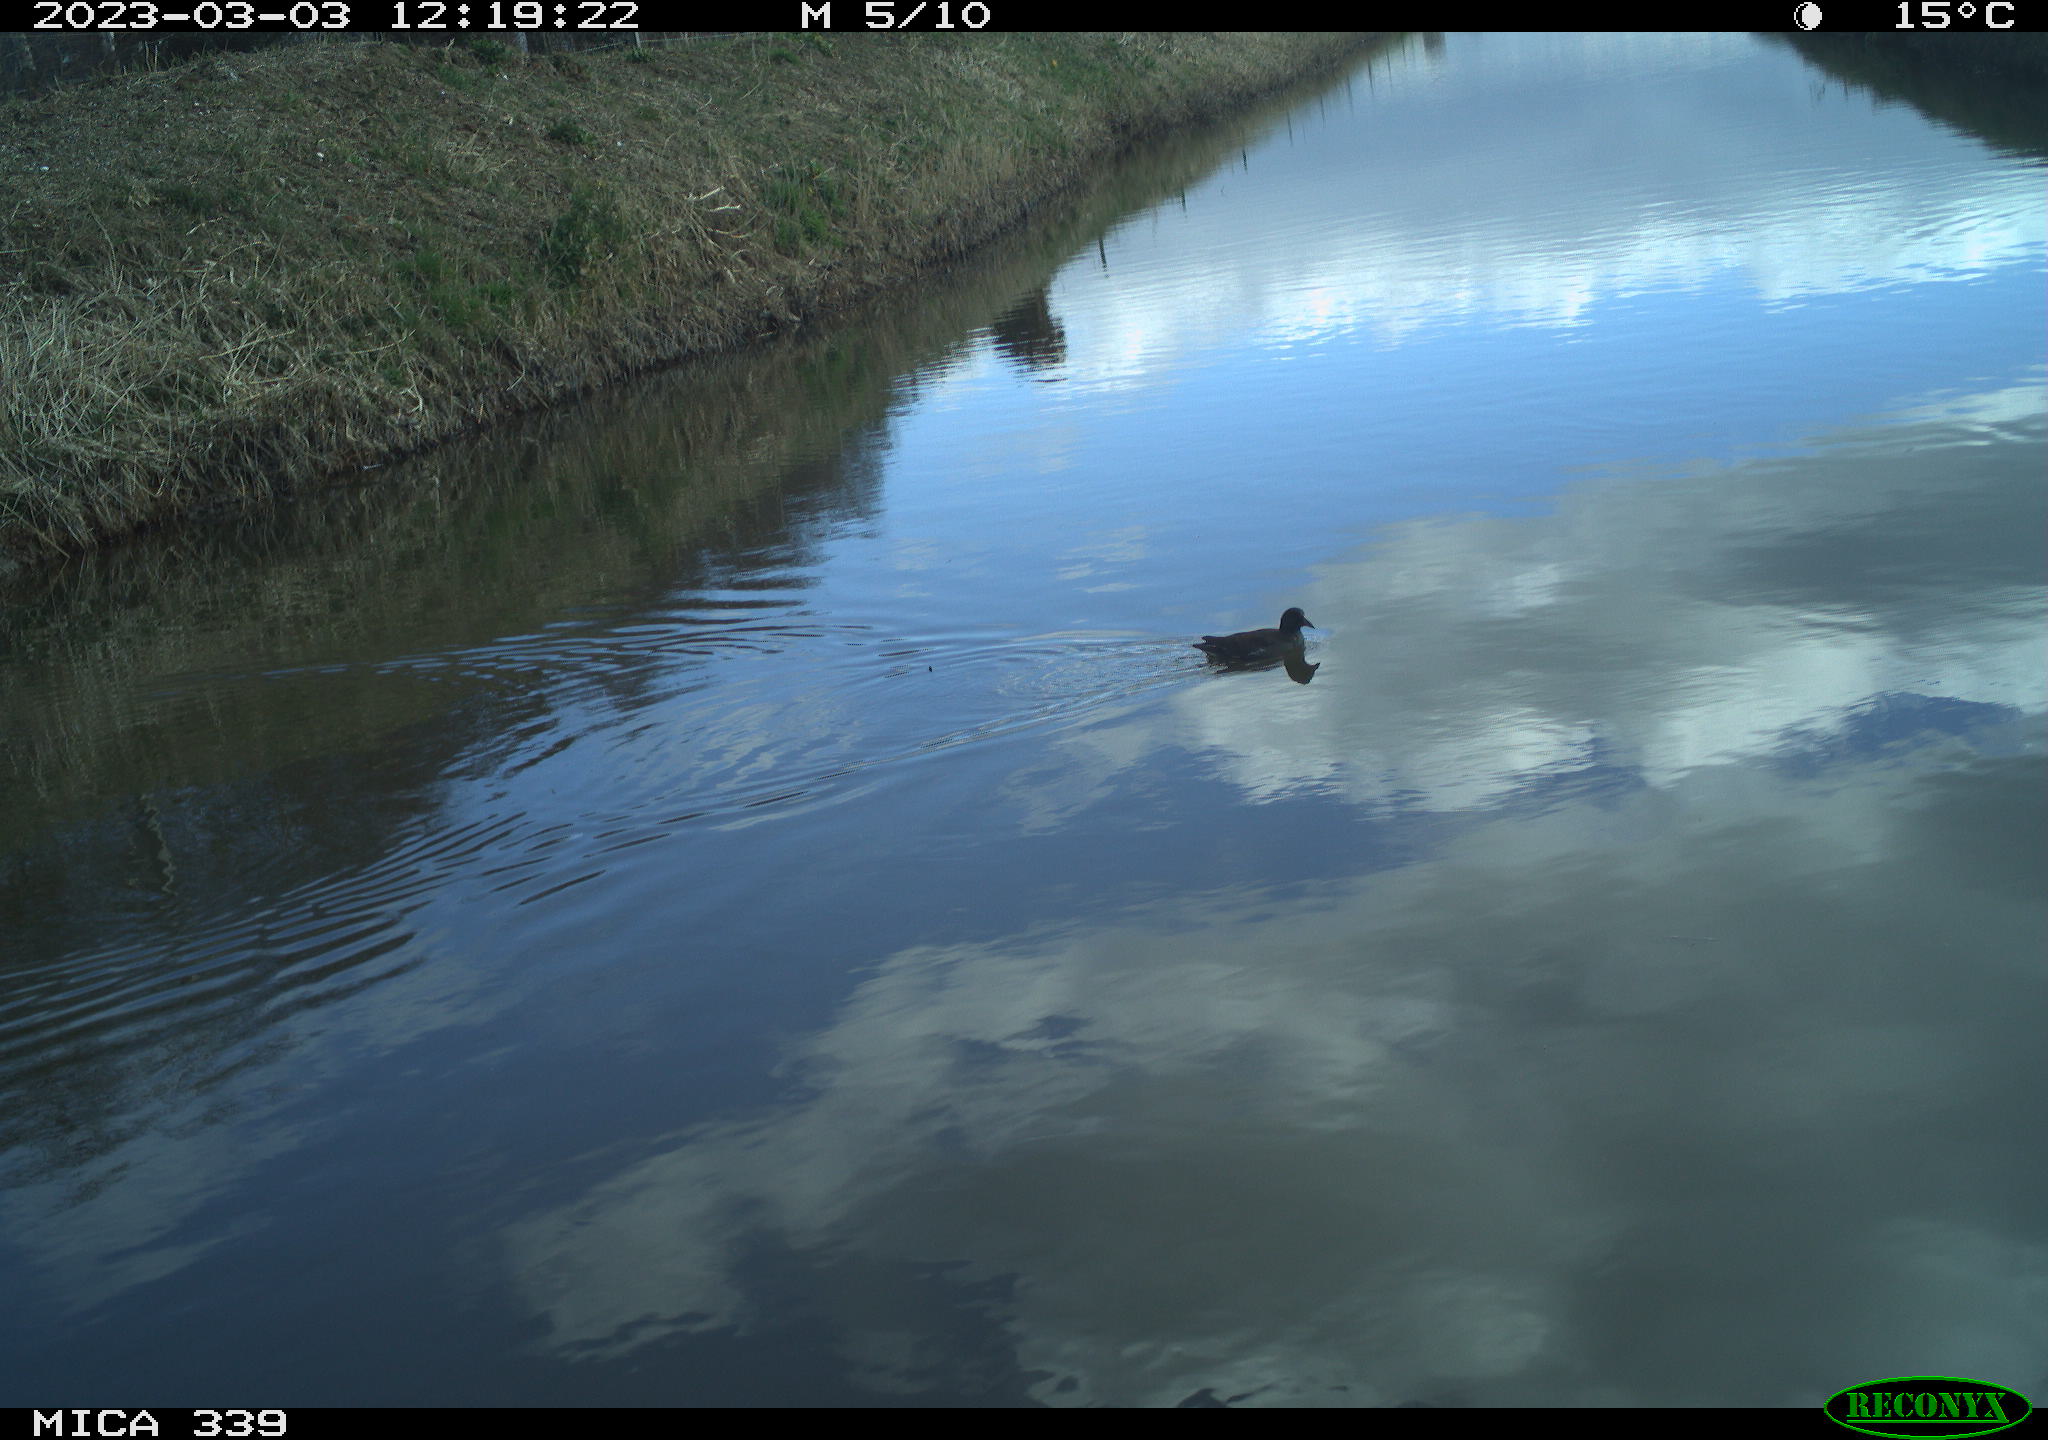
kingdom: Animalia
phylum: Chordata
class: Aves
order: Gruiformes
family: Rallidae
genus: Gallinula
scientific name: Gallinula chloropus
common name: Common moorhen
